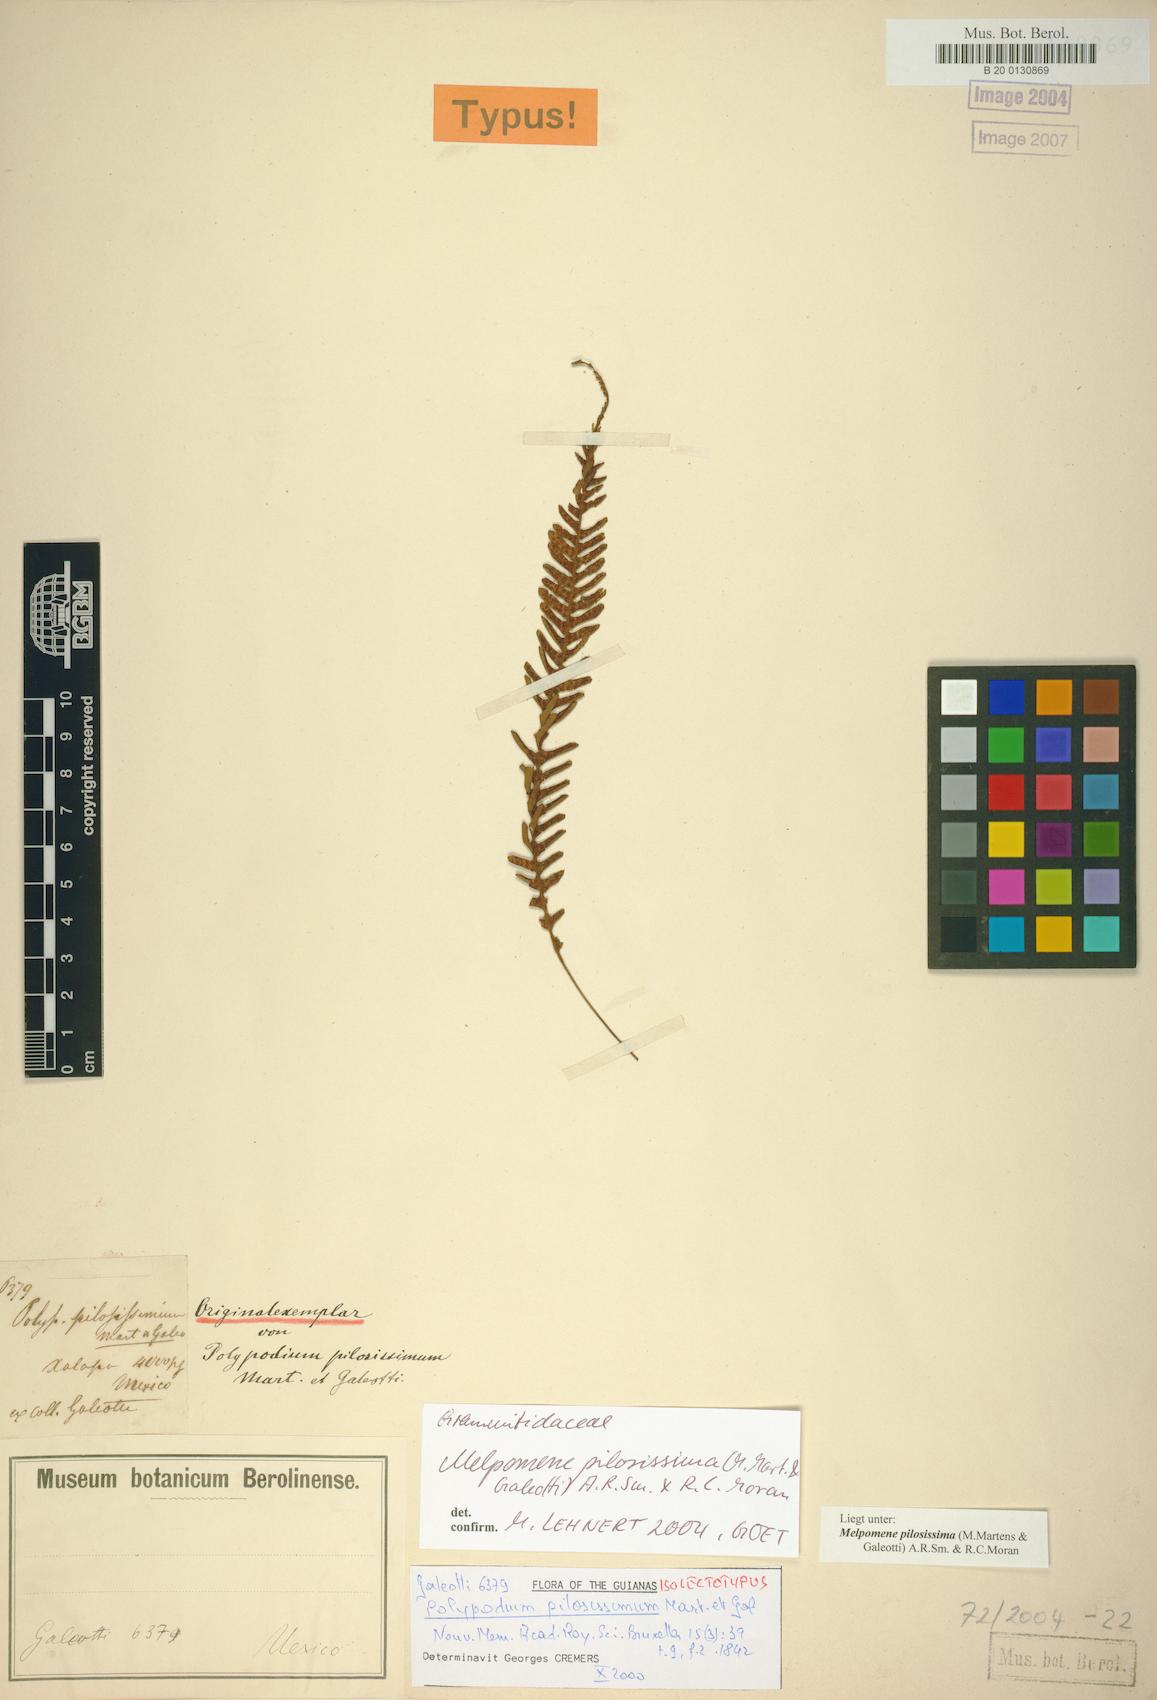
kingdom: Plantae
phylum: Tracheophyta
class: Polypodiopsida
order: Polypodiales
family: Polypodiaceae
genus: Melpomene
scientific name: Melpomene pilosissima
